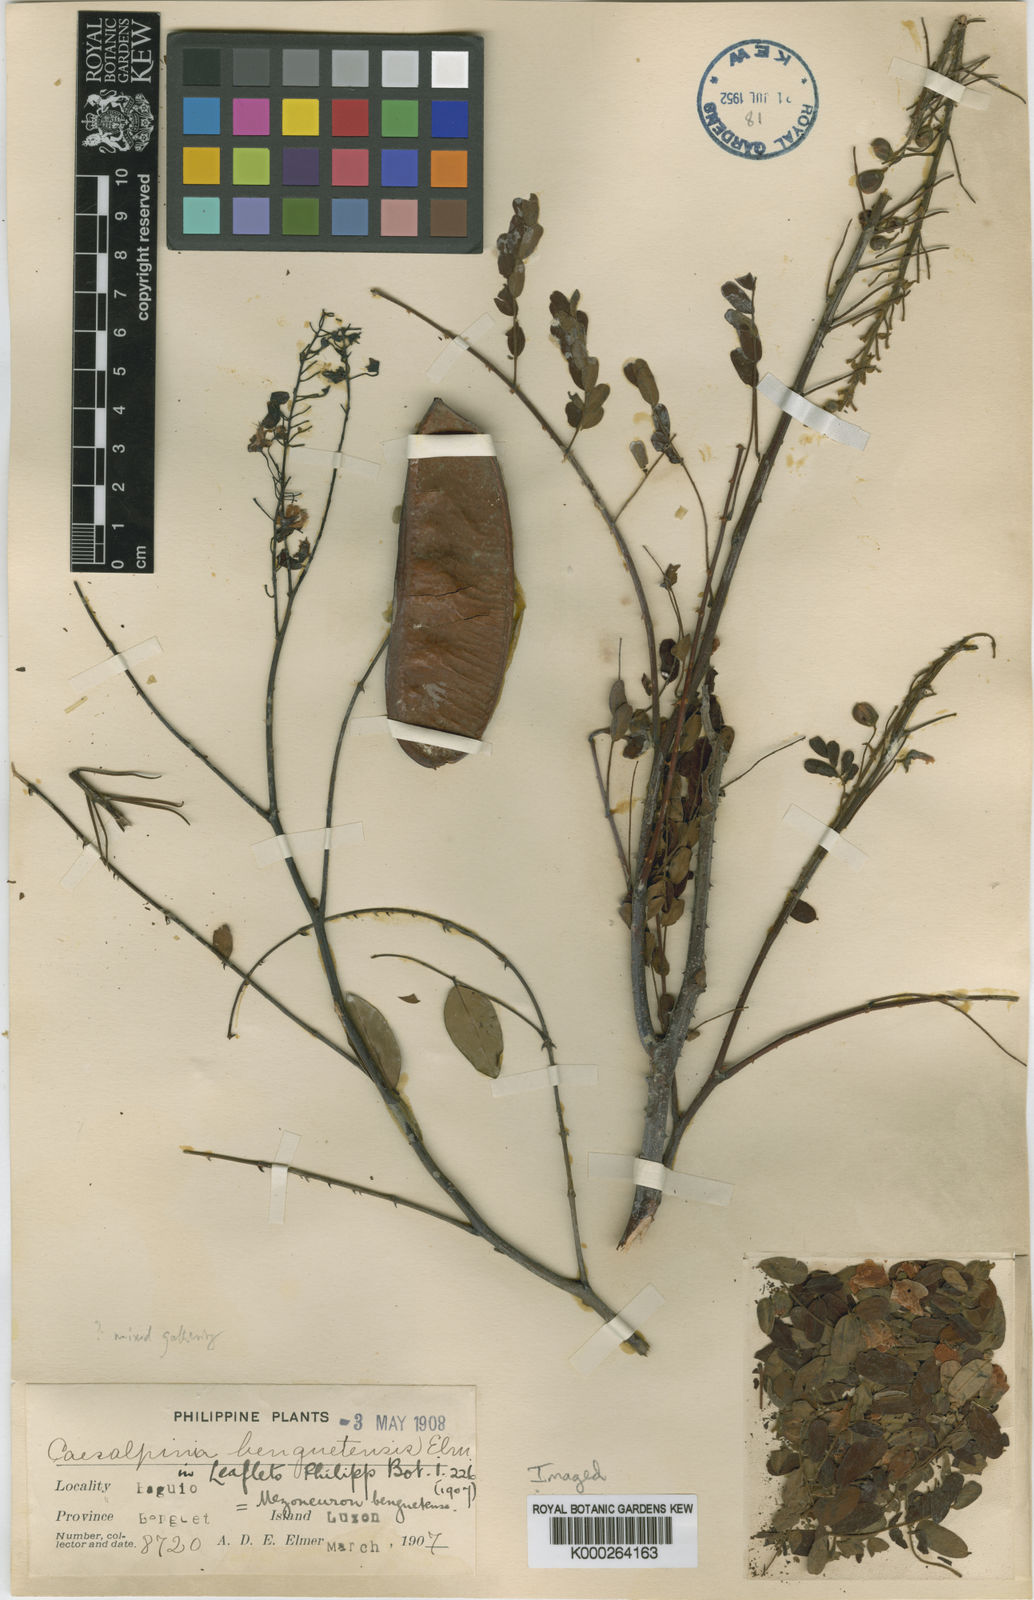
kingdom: Plantae
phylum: Tracheophyta
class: Magnoliopsida
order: Fabales
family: Fabaceae
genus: Biancaea
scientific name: Biancaea decapetala
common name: Cat's claw
